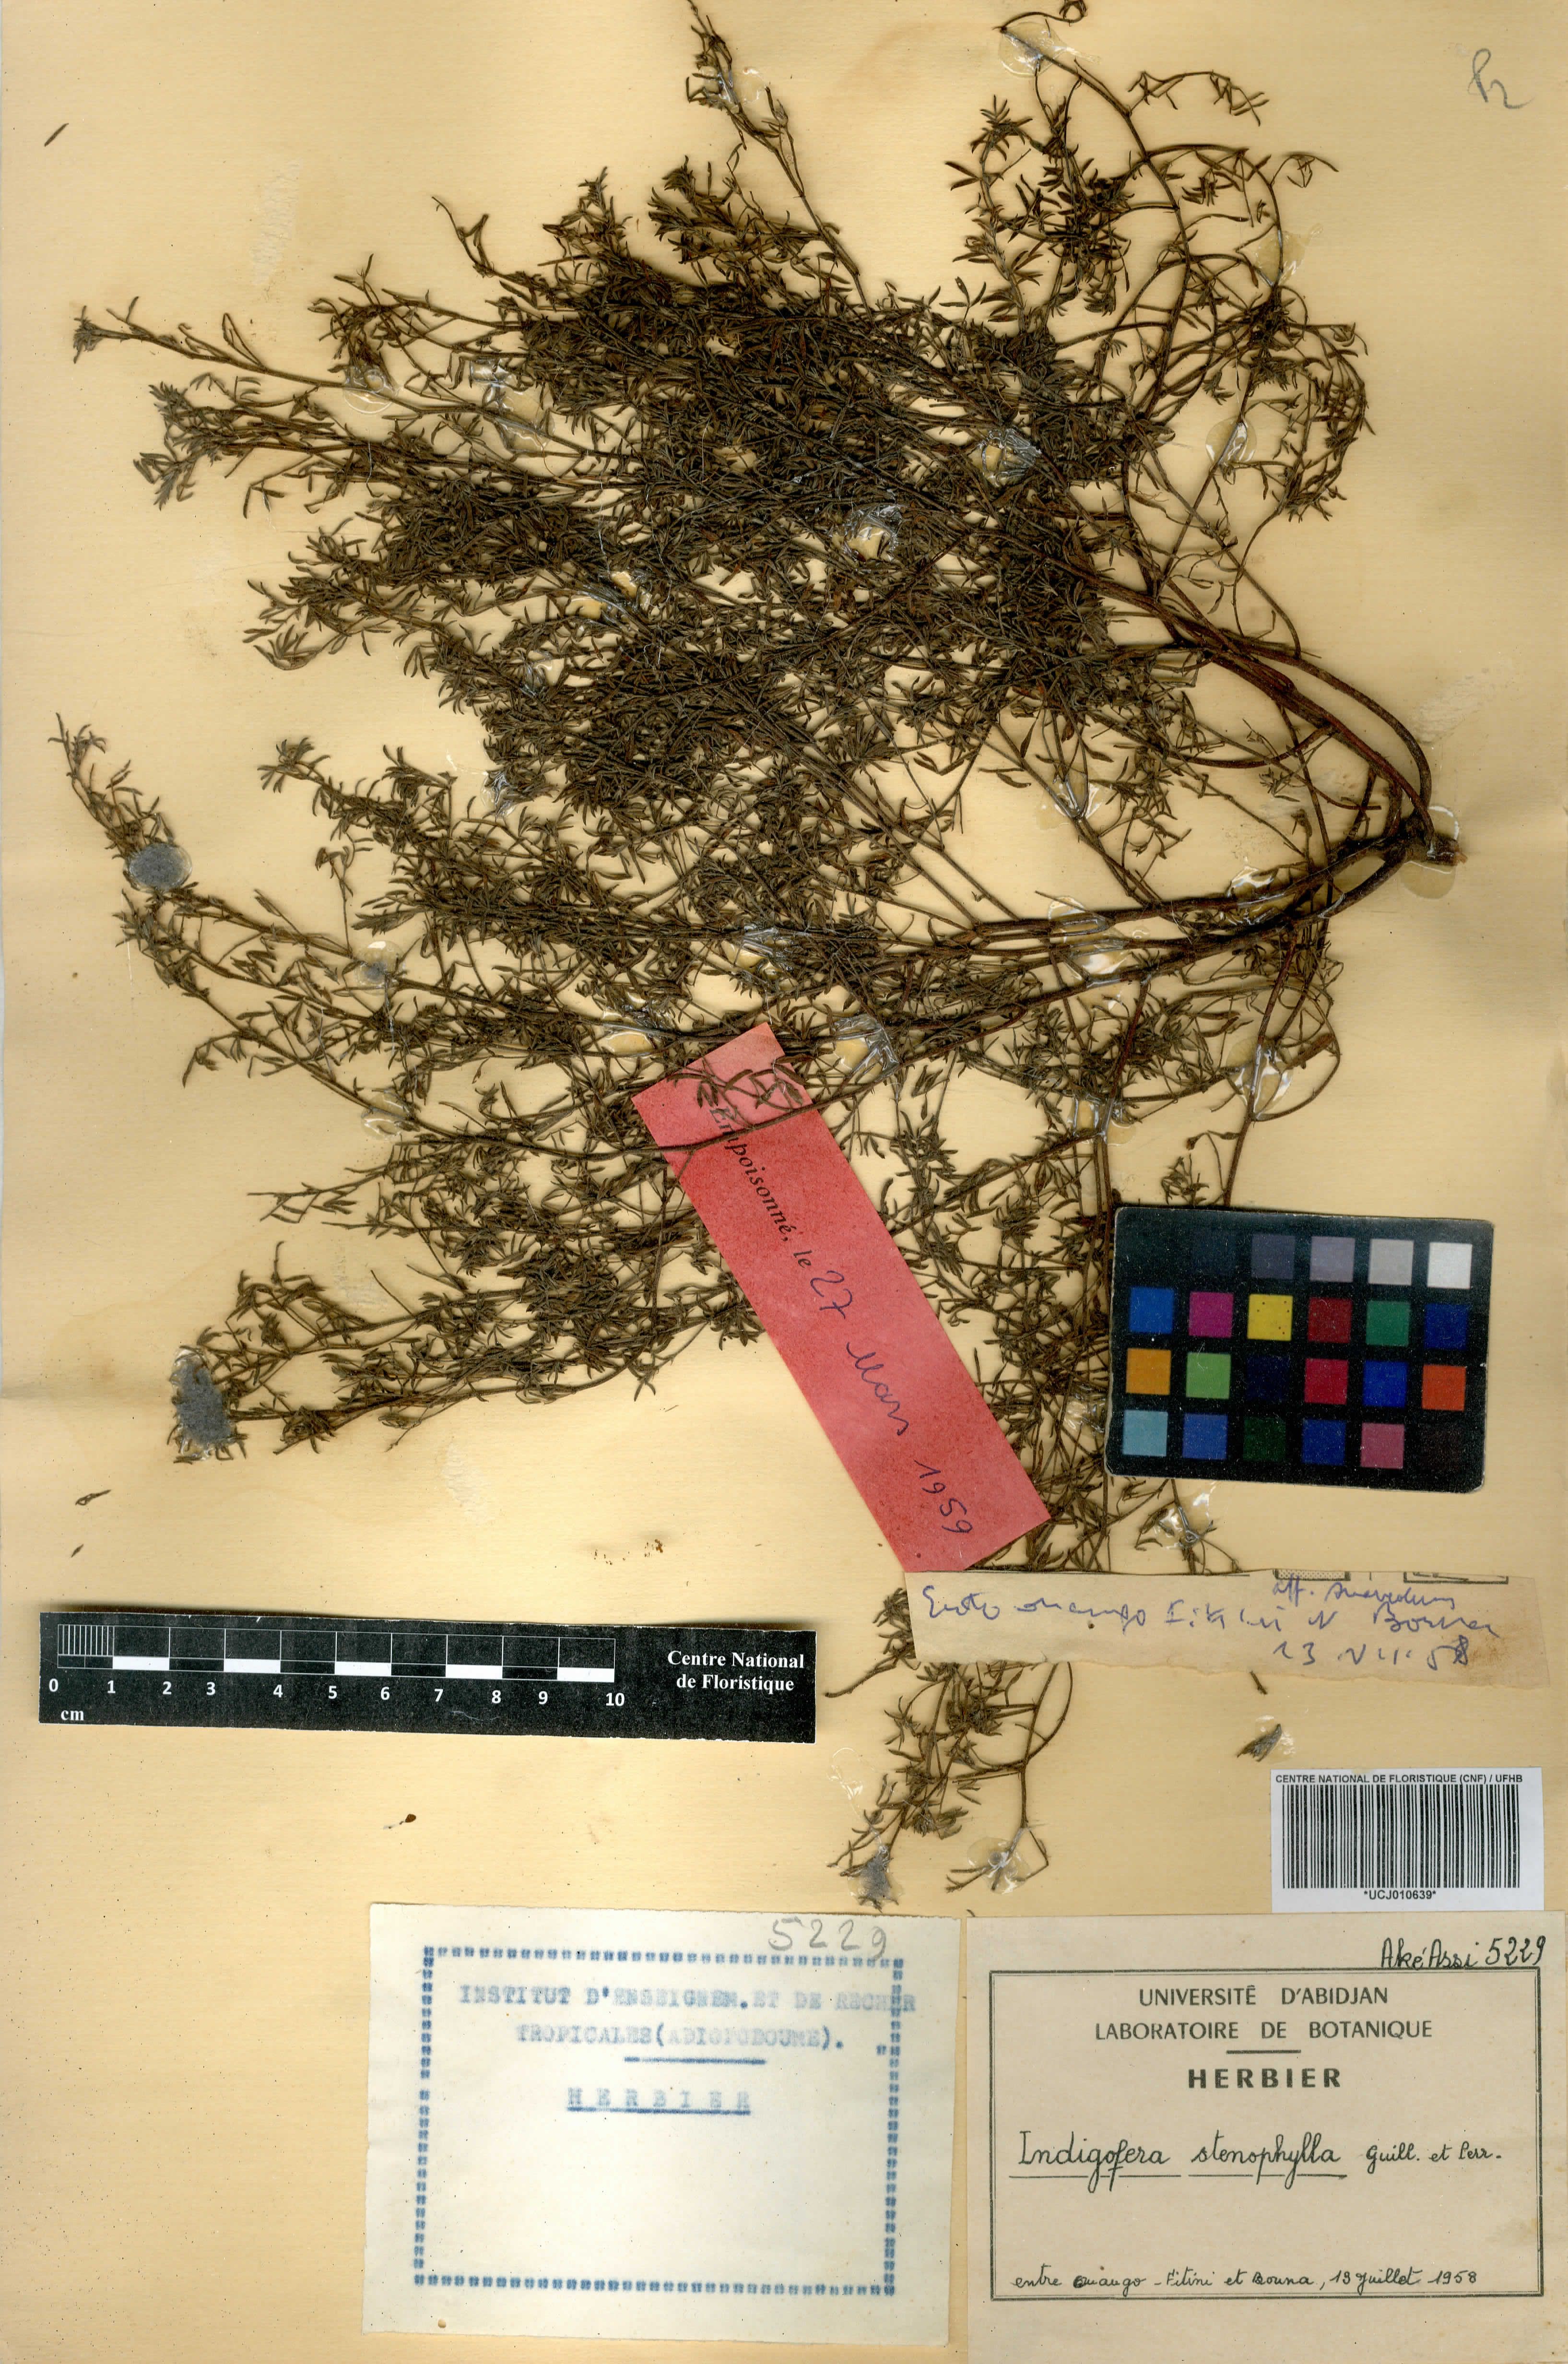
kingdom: Plantae
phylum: Tracheophyta
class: Magnoliopsida
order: Fabales
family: Fabaceae
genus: Indigofera
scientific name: Indigofera suffruticosa
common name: Anil de pasto
